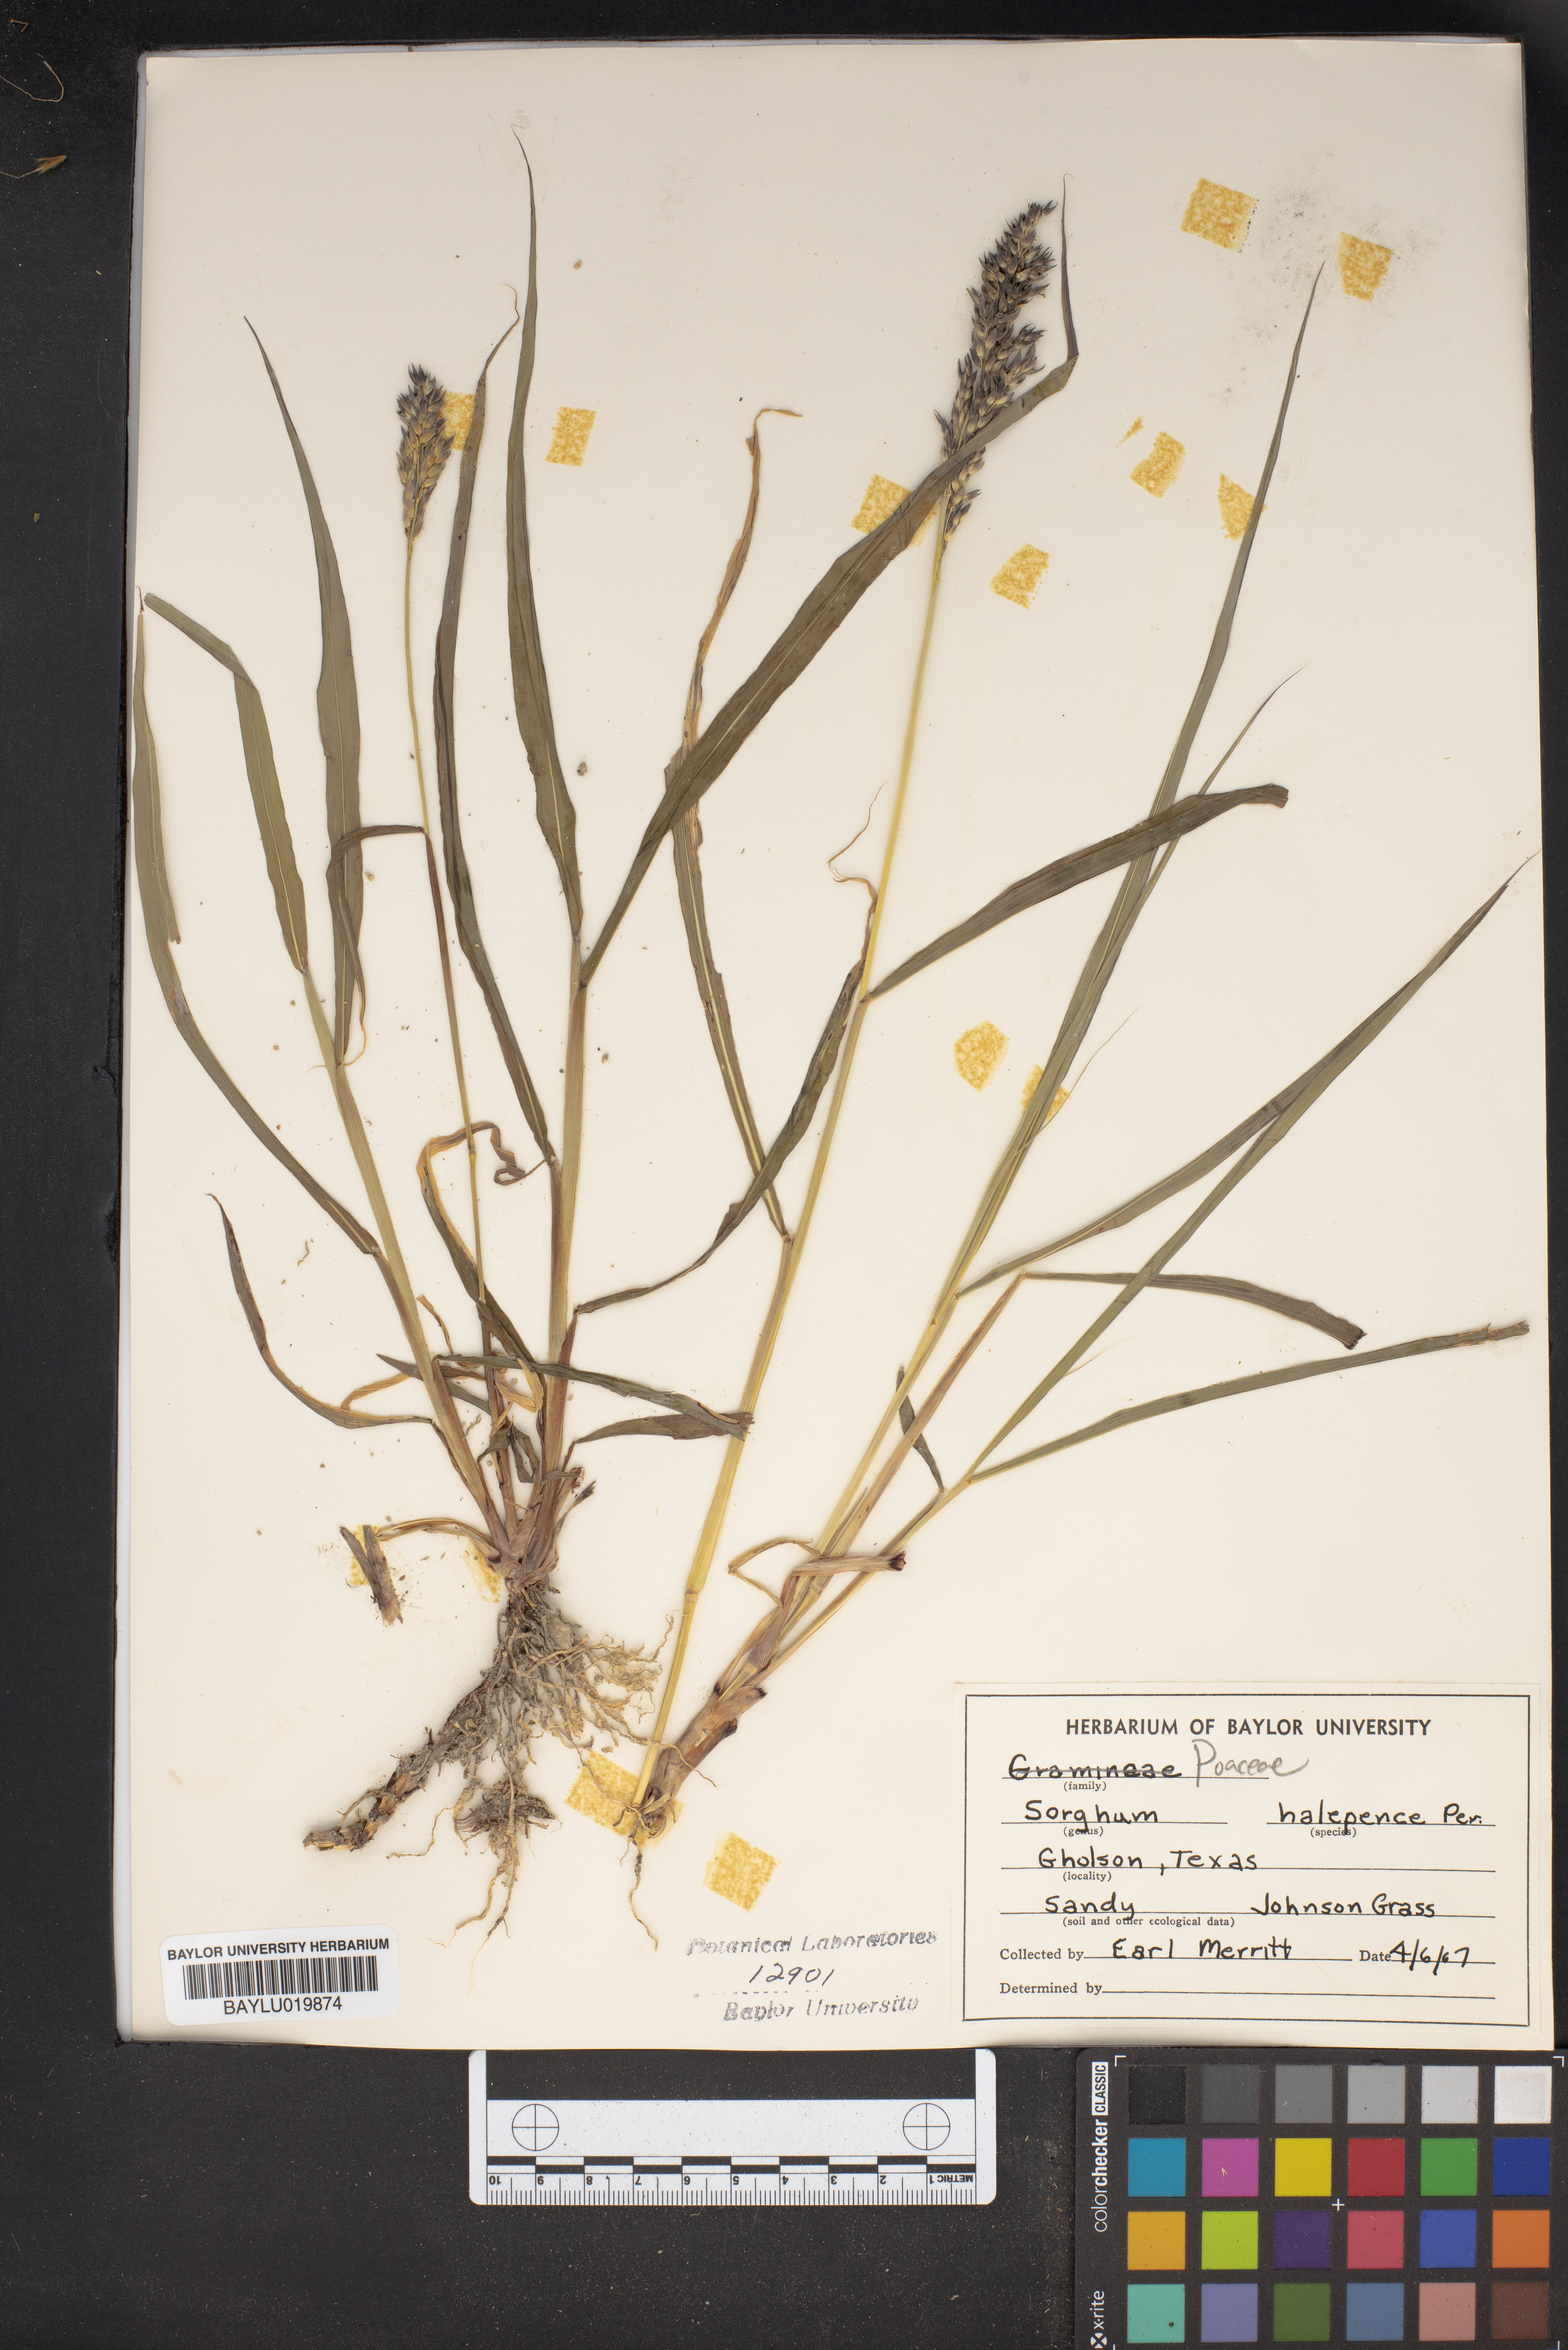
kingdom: Plantae
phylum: Tracheophyta
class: Liliopsida
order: Poales
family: Poaceae
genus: Sorghum
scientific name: Sorghum halepense
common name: Johnson-grass
